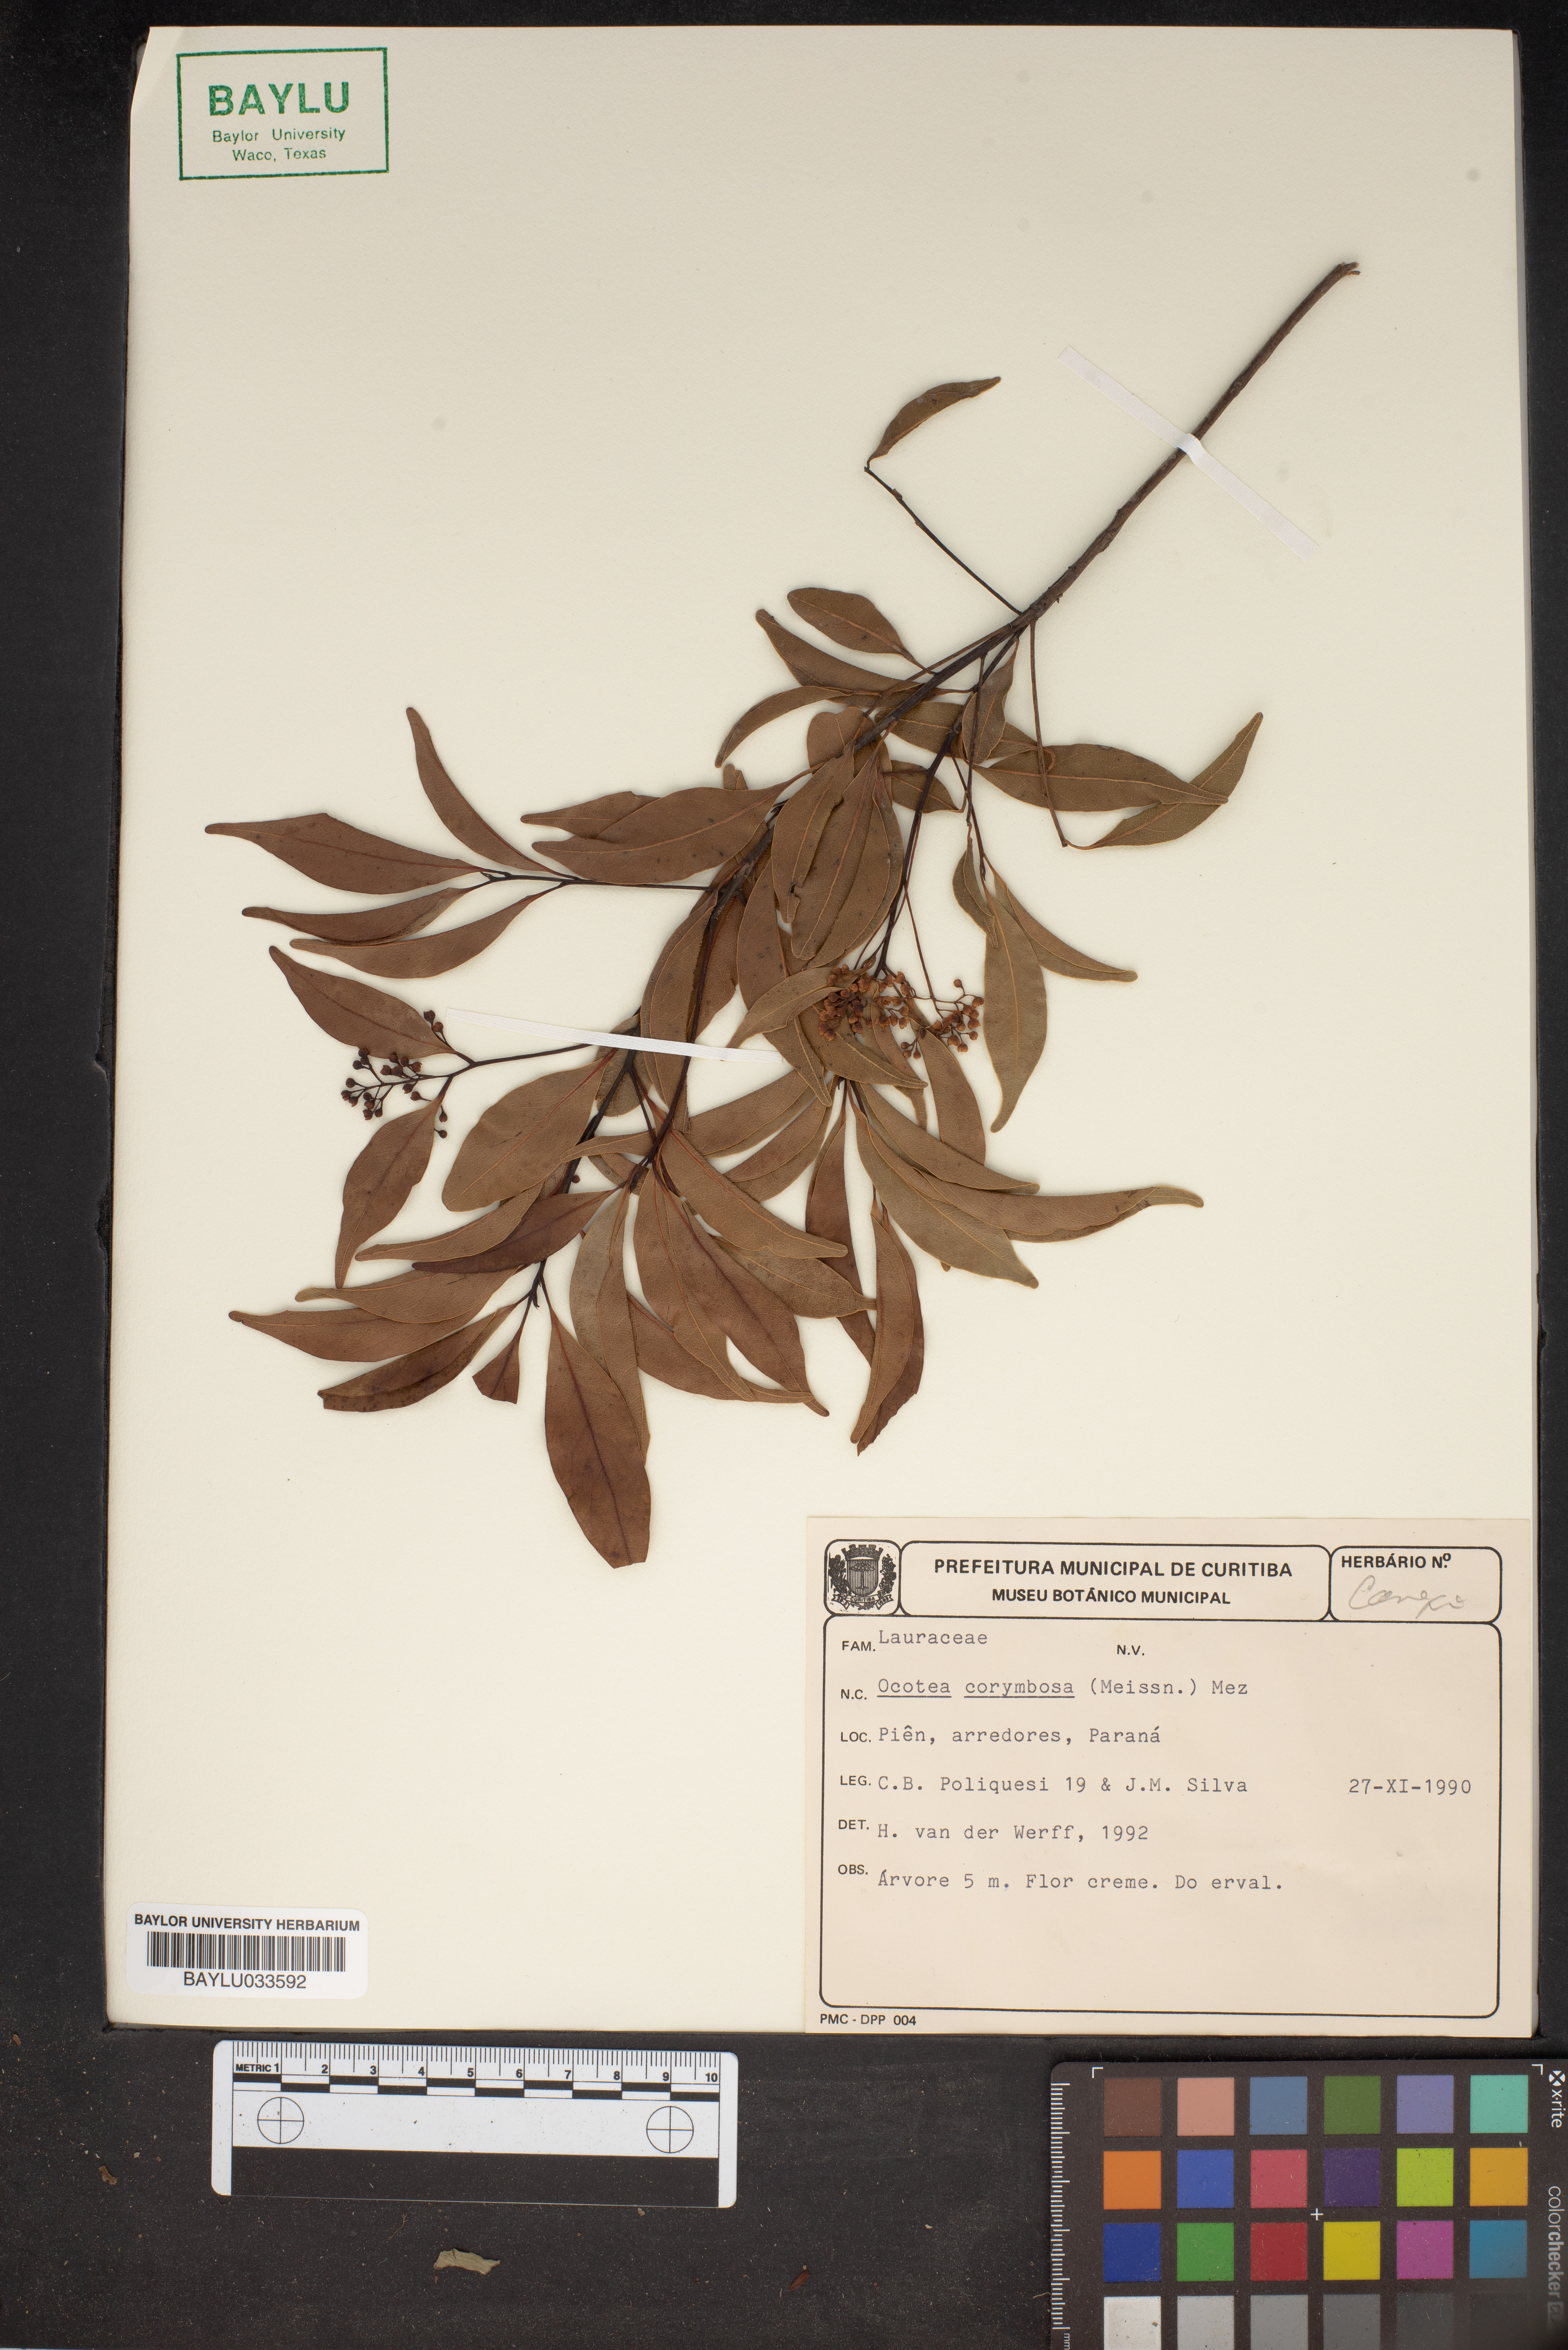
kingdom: Plantae
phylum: Tracheophyta
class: Magnoliopsida
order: Laurales
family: Lauraceae
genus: Mespilodaphne
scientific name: Mespilodaphne corymbosa
